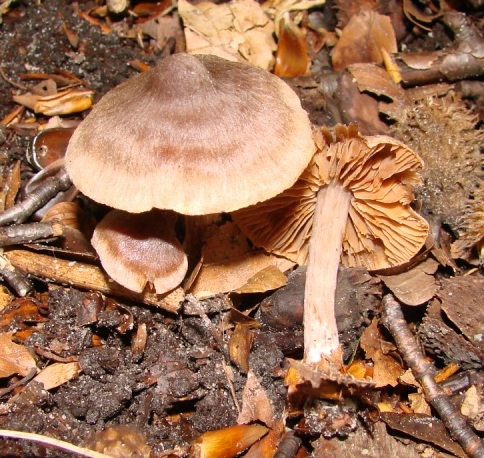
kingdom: Fungi
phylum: Basidiomycota
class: Agaricomycetes
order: Agaricales
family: Cortinariaceae
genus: Cortinarius
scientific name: Cortinarius decipiens
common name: mørkpuklet slørhat
